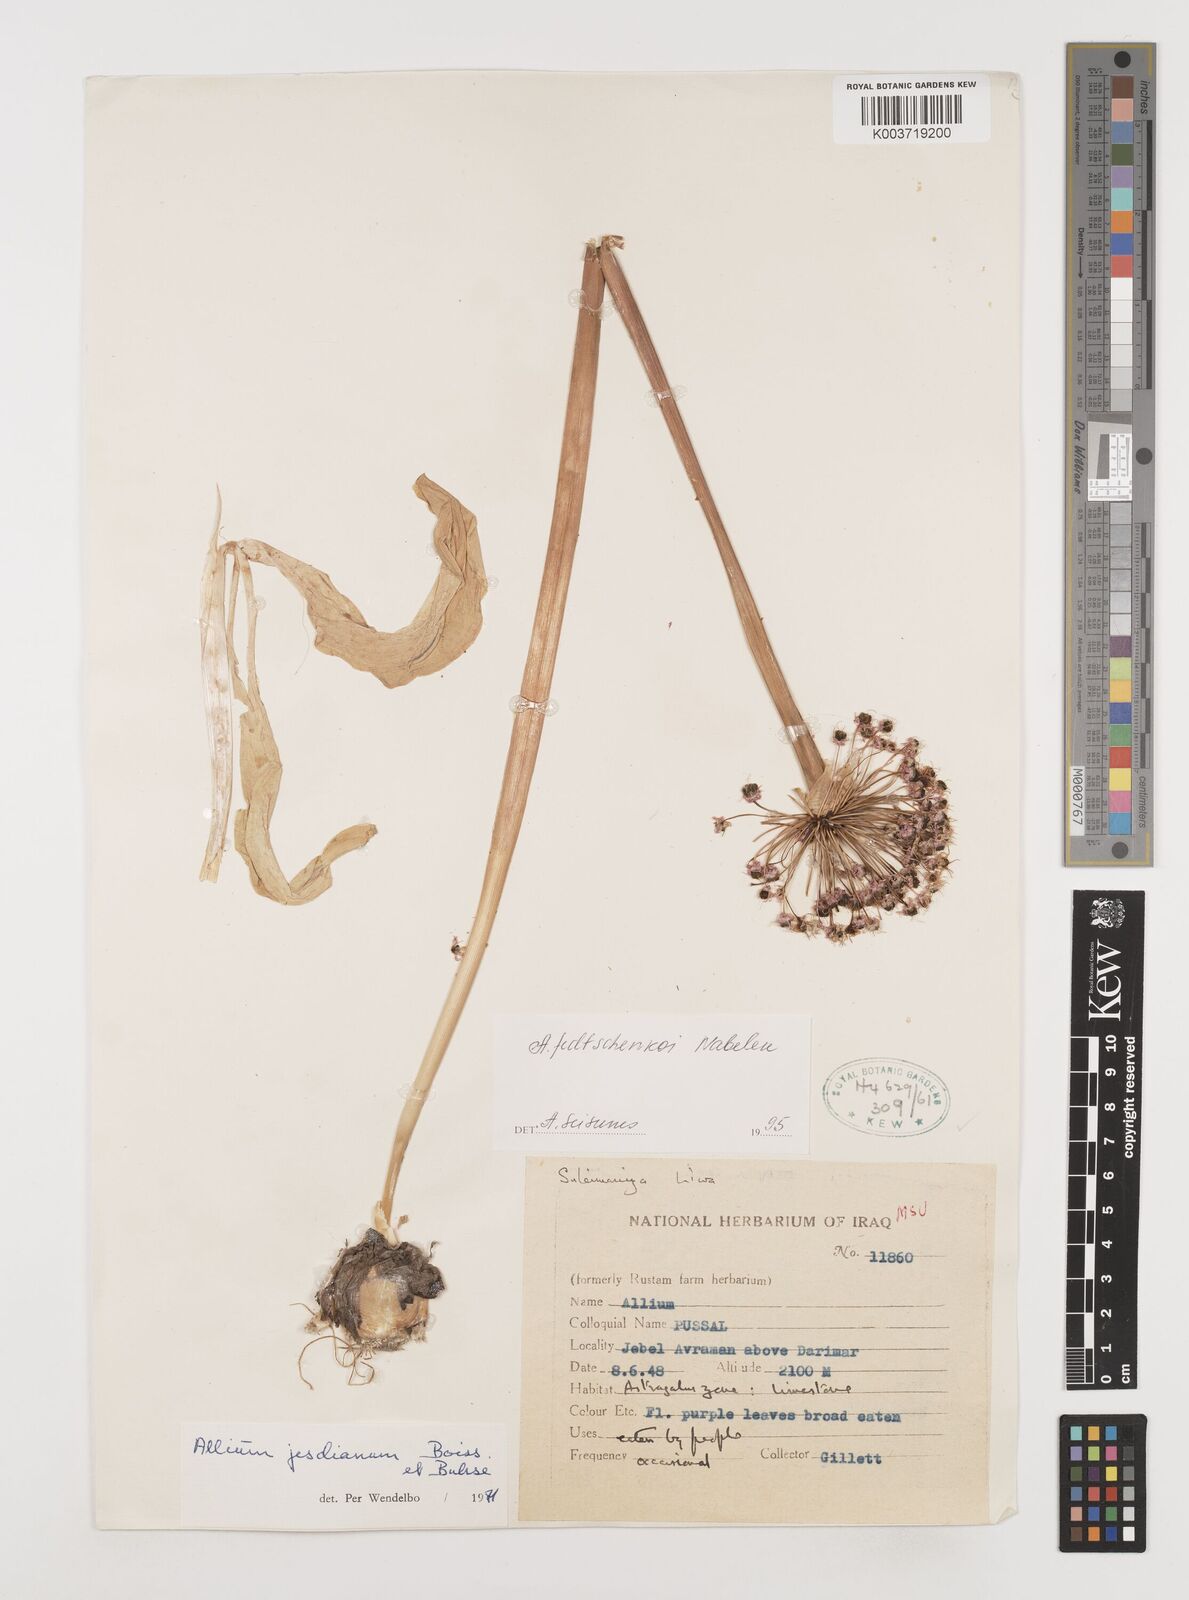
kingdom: Plantae
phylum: Tracheophyta
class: Liliopsida
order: Asparagales
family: Amaryllidaceae
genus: Allium
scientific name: Allium jesdianum
